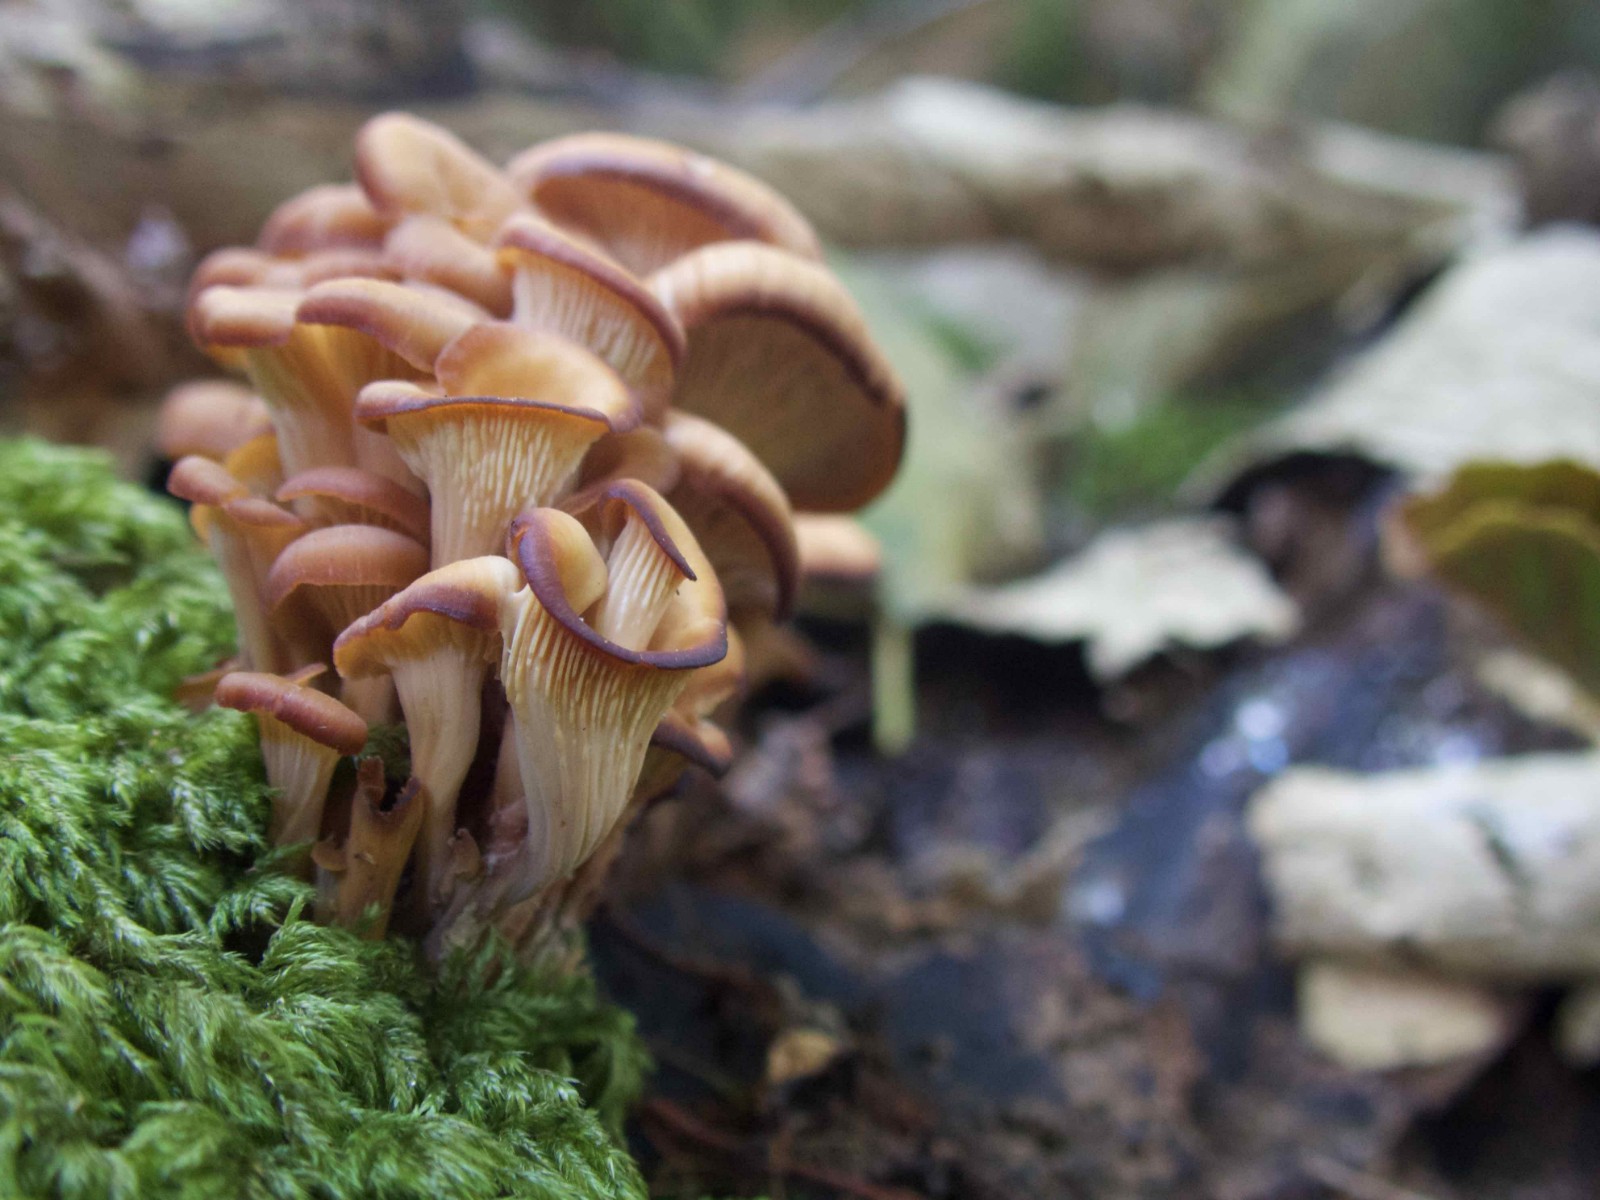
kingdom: Fungi
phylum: Basidiomycota
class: Agaricomycetes
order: Russulales
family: Auriscalpiaceae
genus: Lentinellus
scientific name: Lentinellus cochleatus
